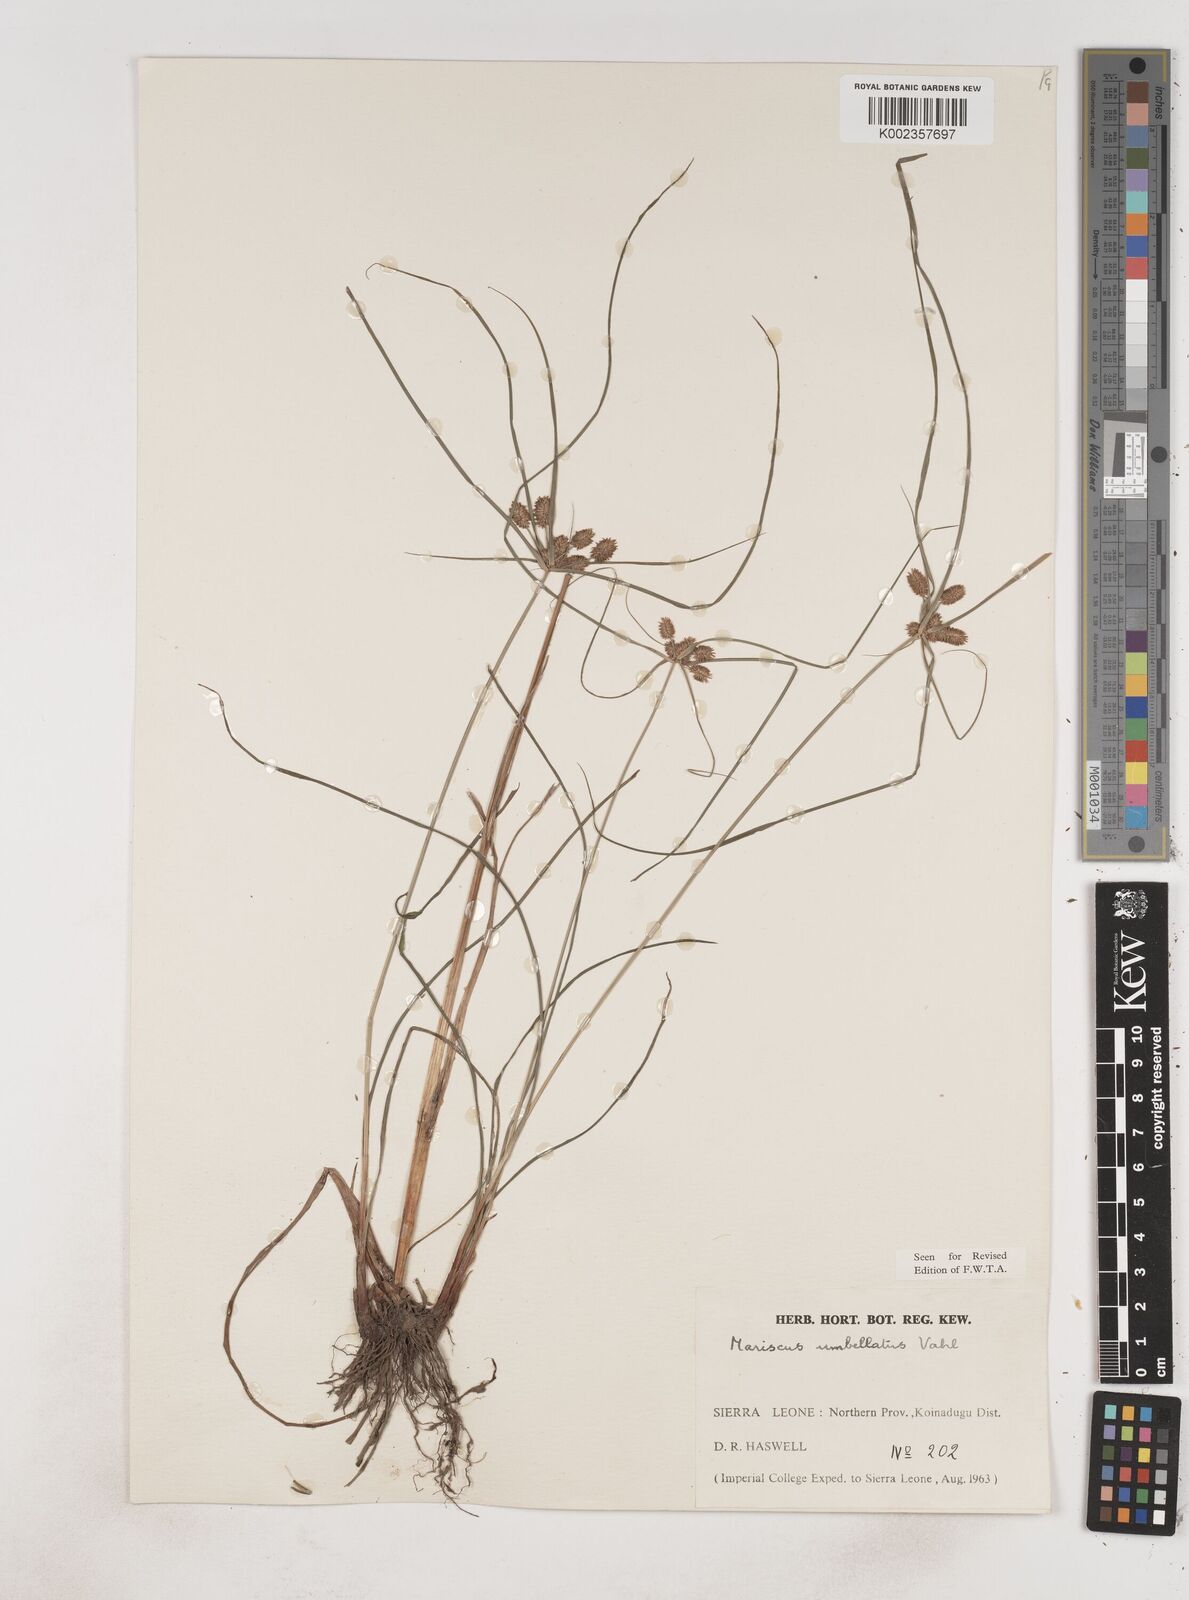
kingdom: Plantae
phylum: Tracheophyta
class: Liliopsida
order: Poales
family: Cyperaceae
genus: Cyperus
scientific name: Cyperus sublimis
